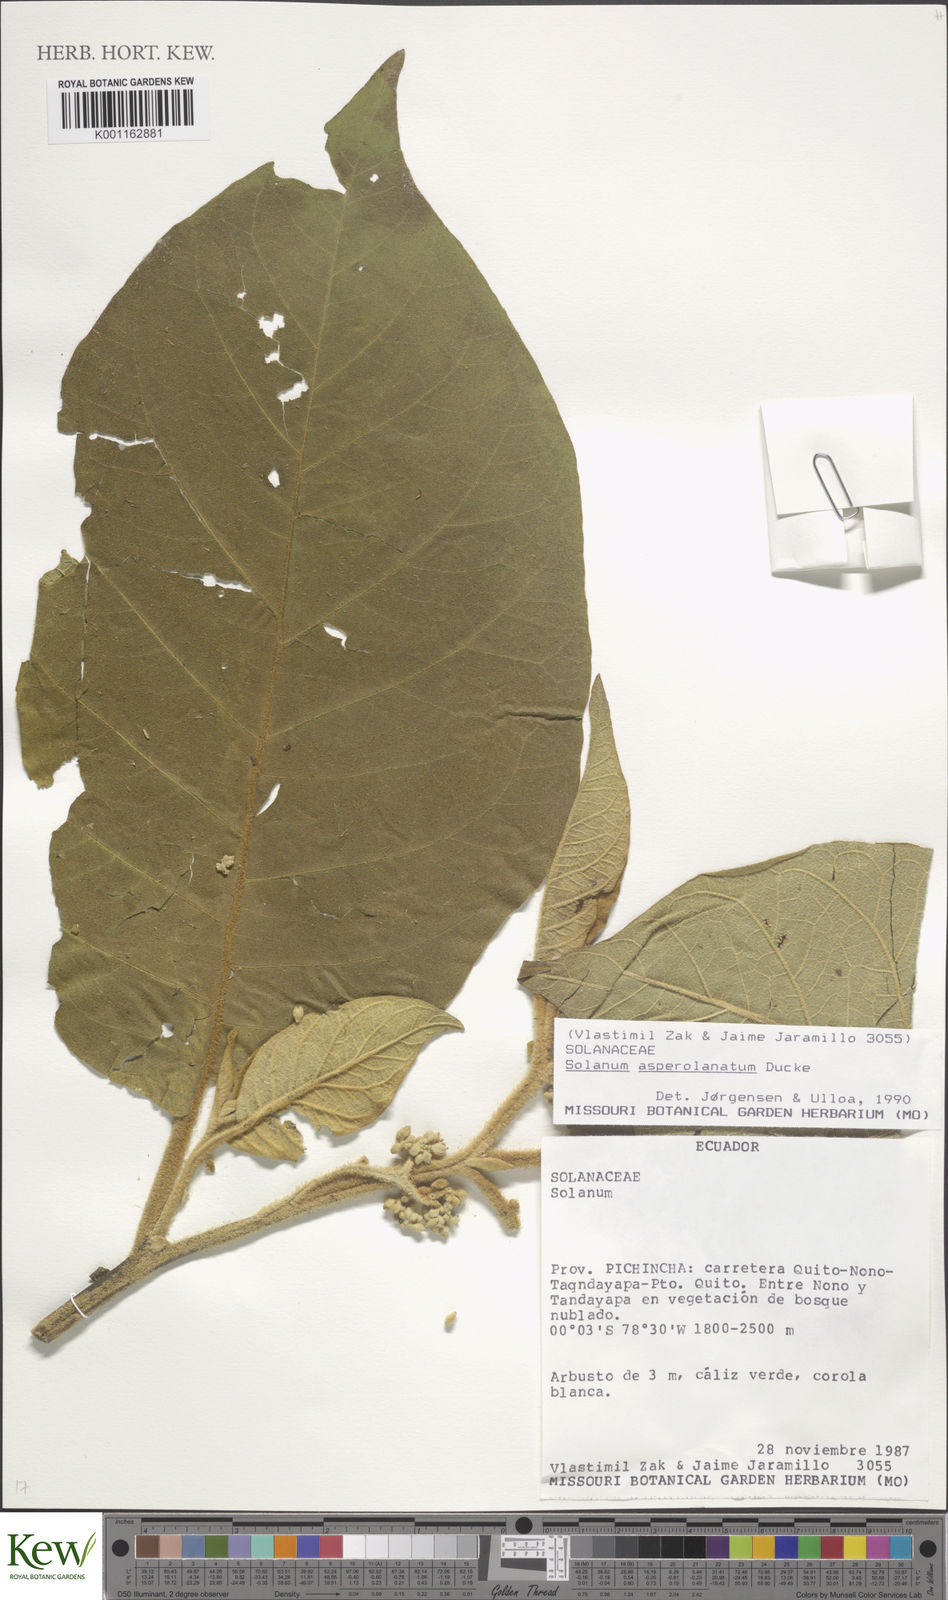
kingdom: Plantae
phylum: Tracheophyta
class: Magnoliopsida
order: Solanales
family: Solanaceae
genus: Solanum
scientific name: Solanum asperolanatum
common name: Devil's-fig
